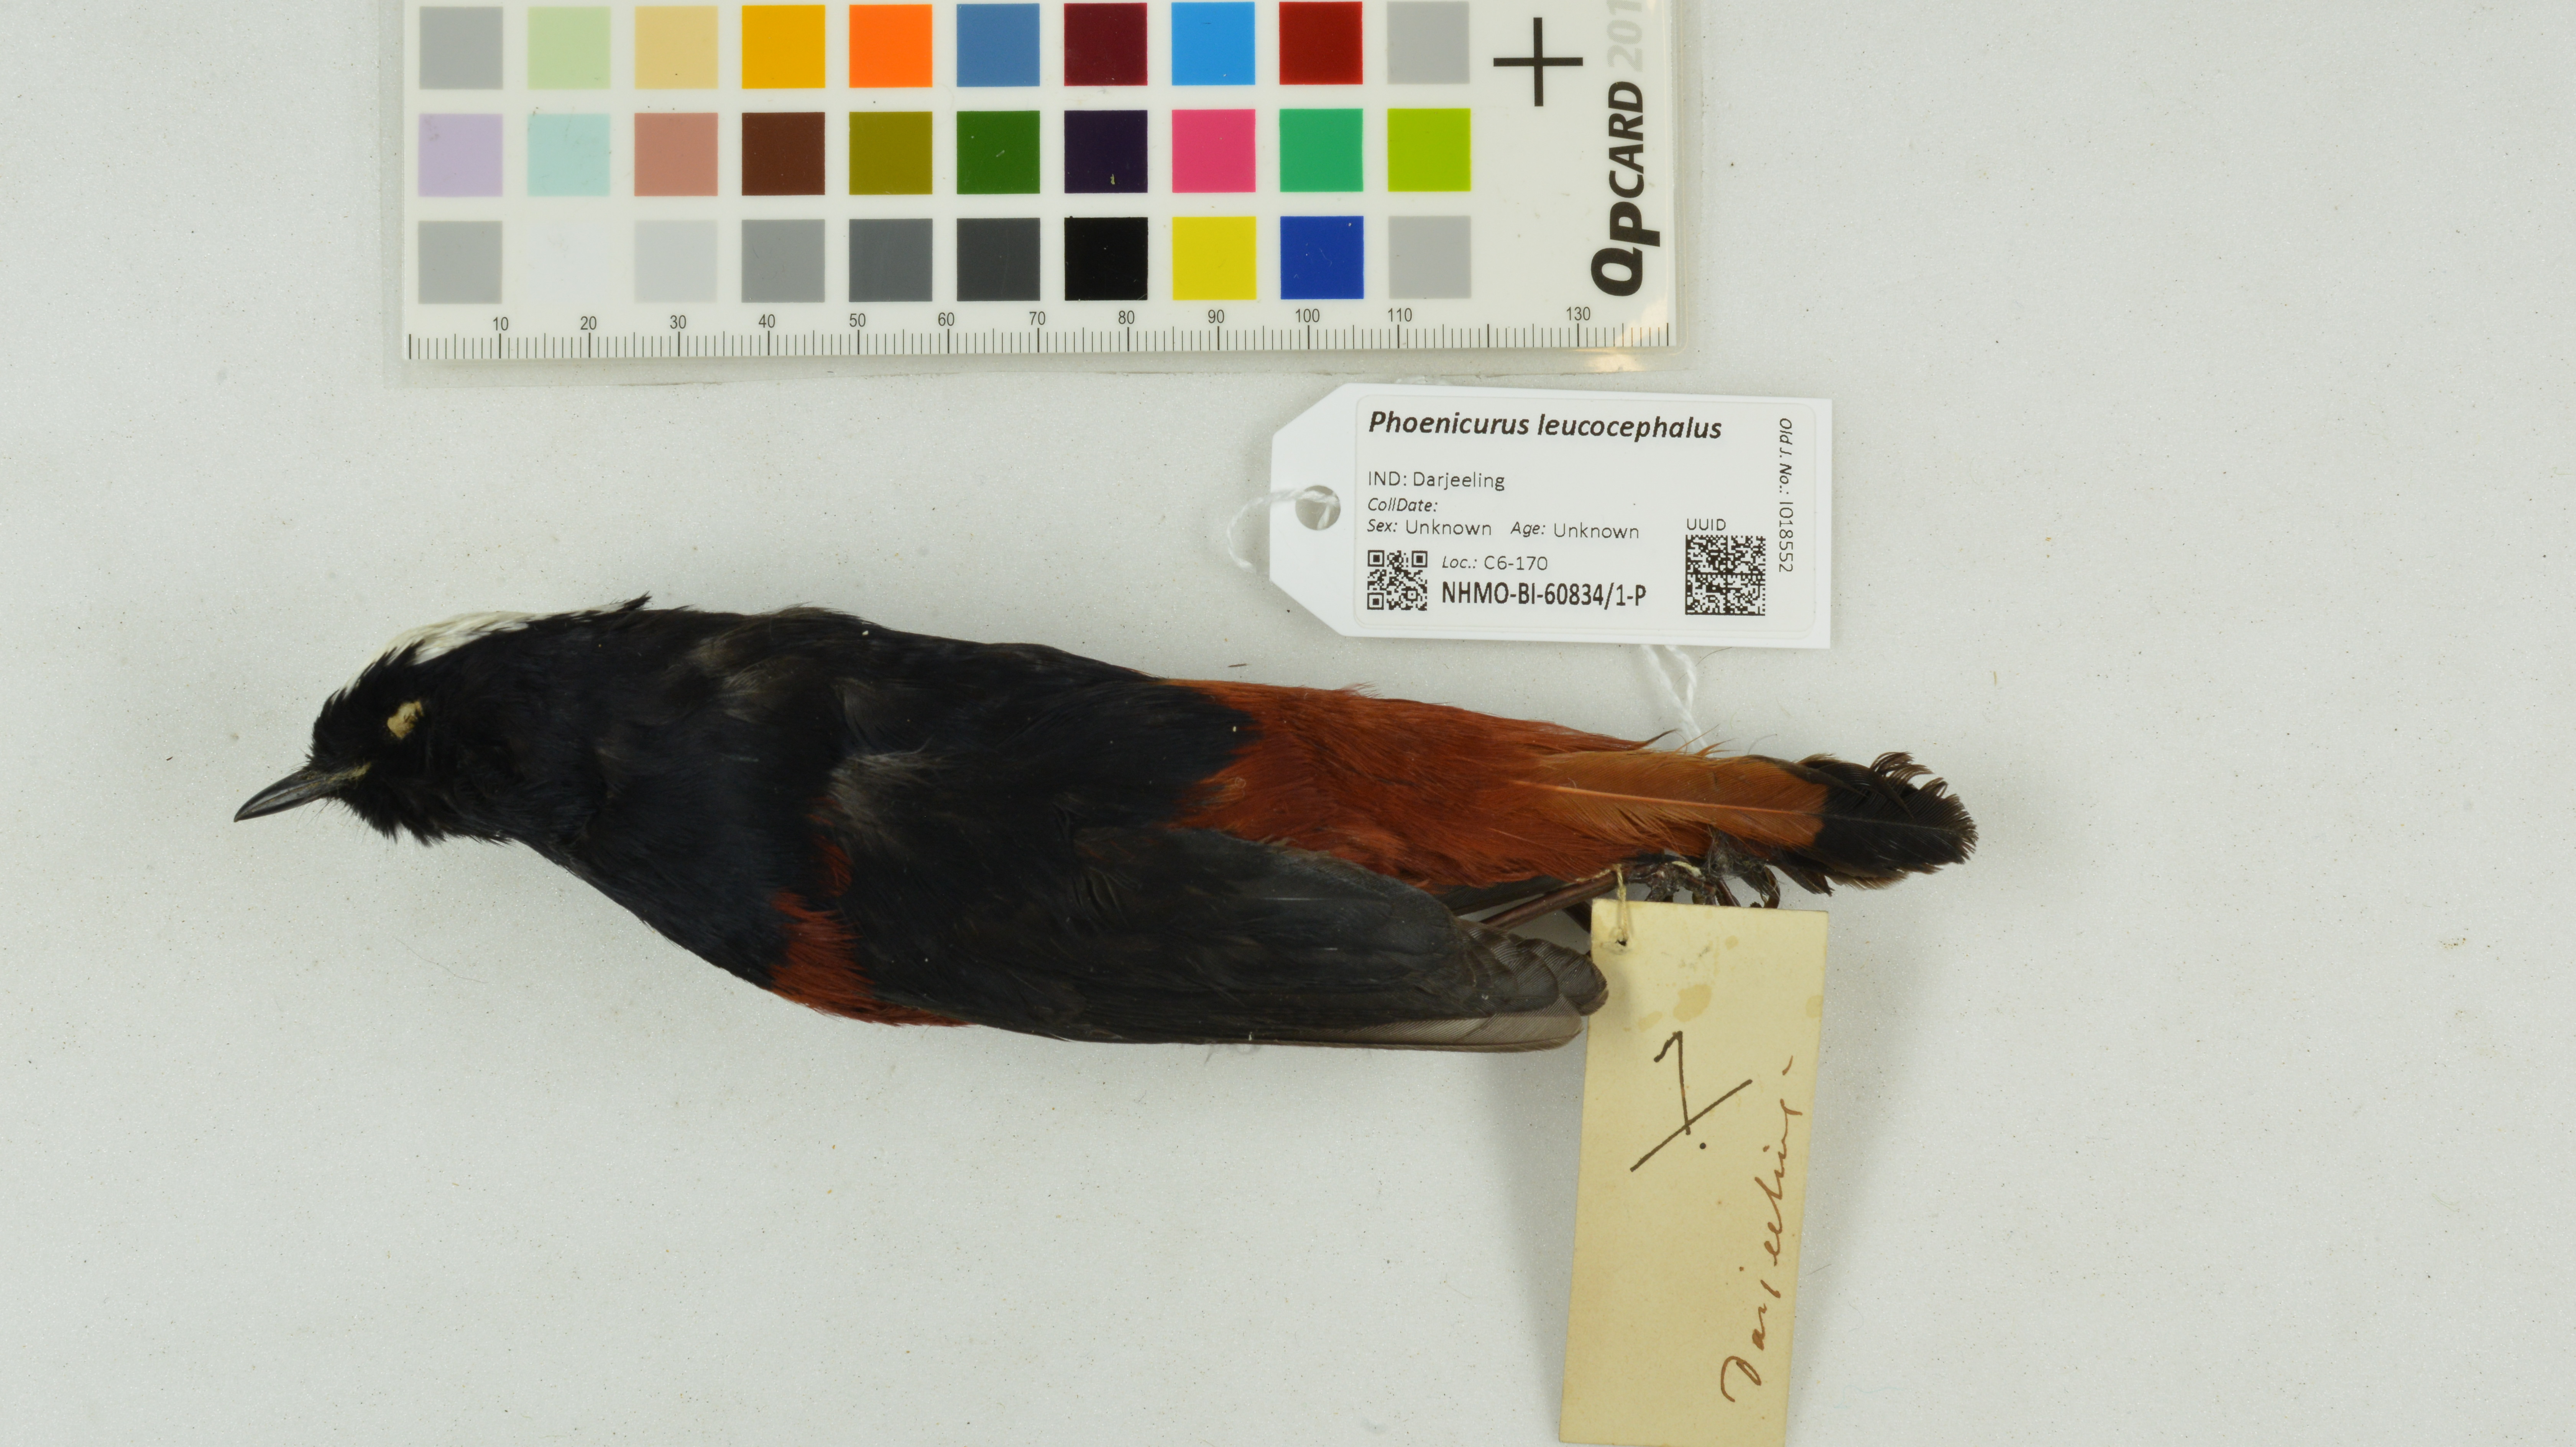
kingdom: Animalia
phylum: Chordata
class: Aves
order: Passeriformes
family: Muscicapidae
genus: Chaimarrornis
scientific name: Chaimarrornis leucocephalus
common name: White-capped redstart
